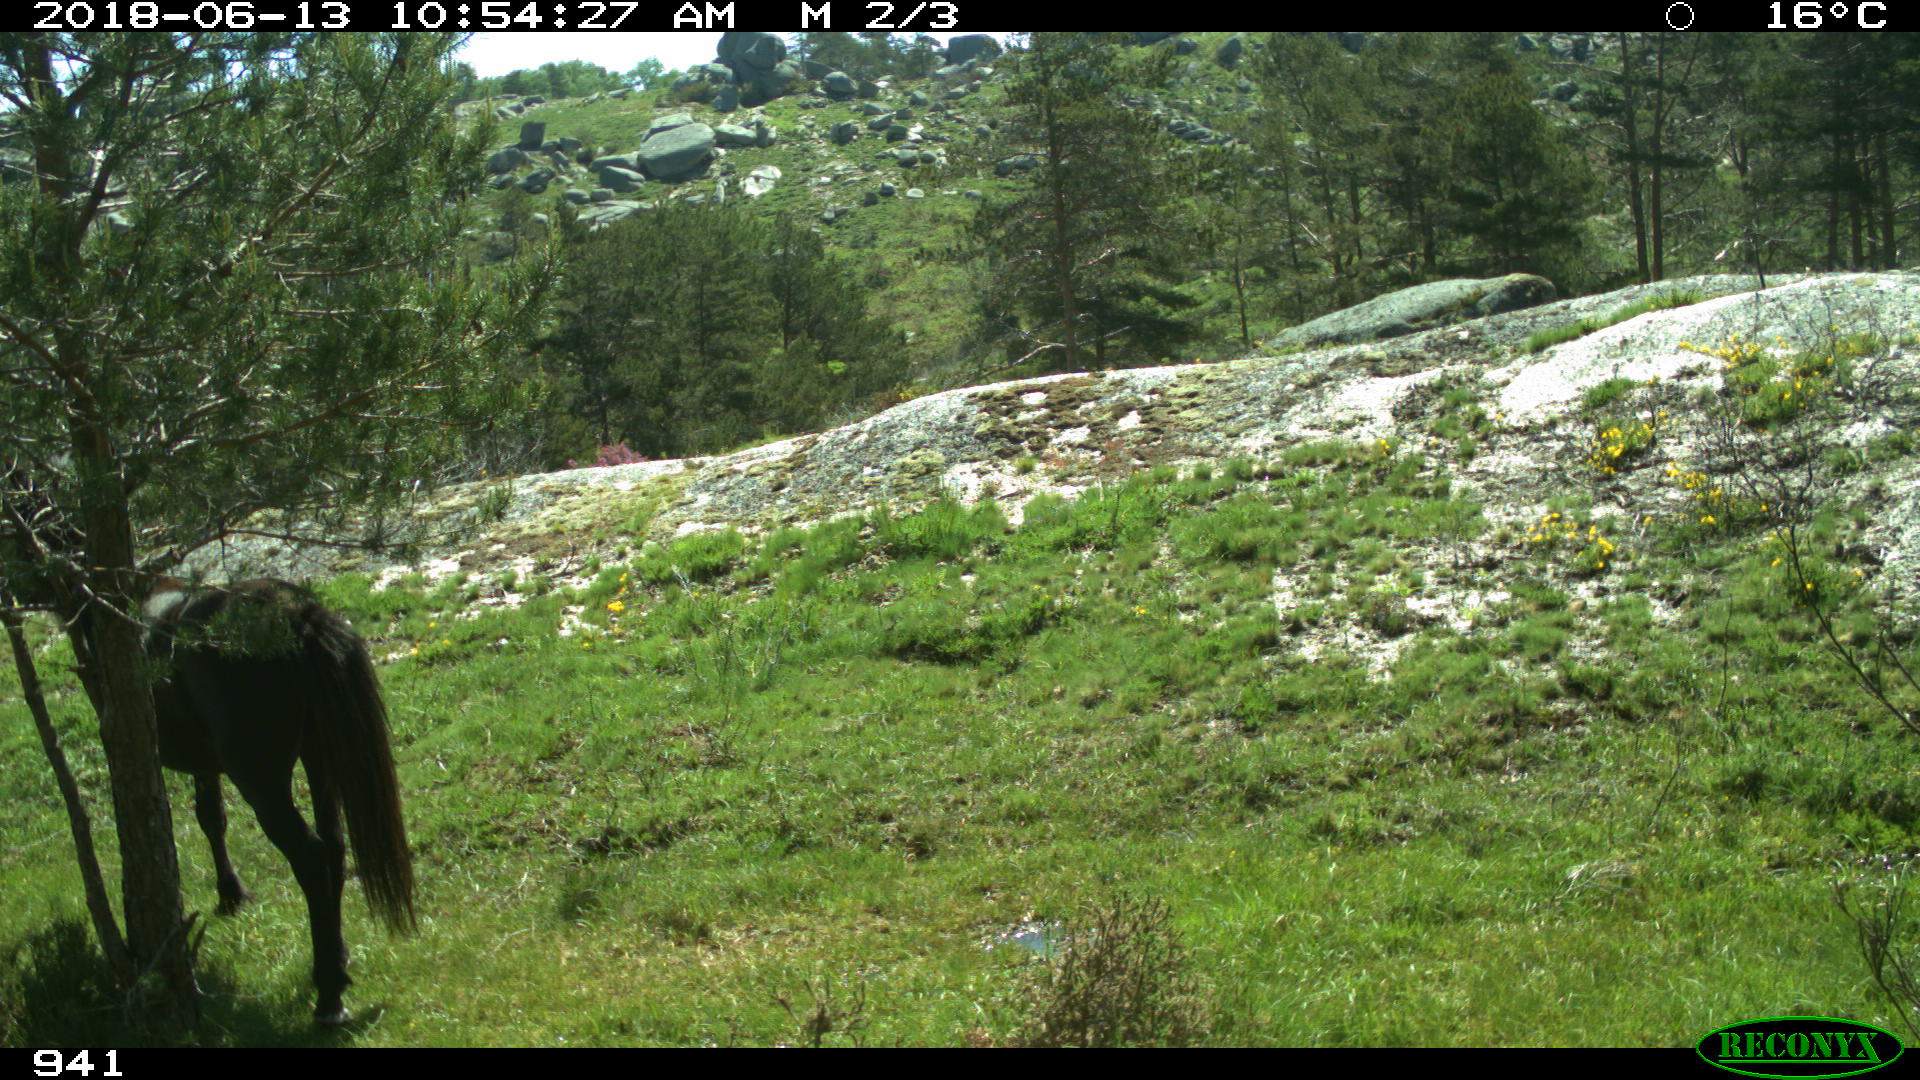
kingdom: Animalia
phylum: Chordata
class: Mammalia
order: Perissodactyla
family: Equidae
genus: Equus
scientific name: Equus caballus
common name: Horse
